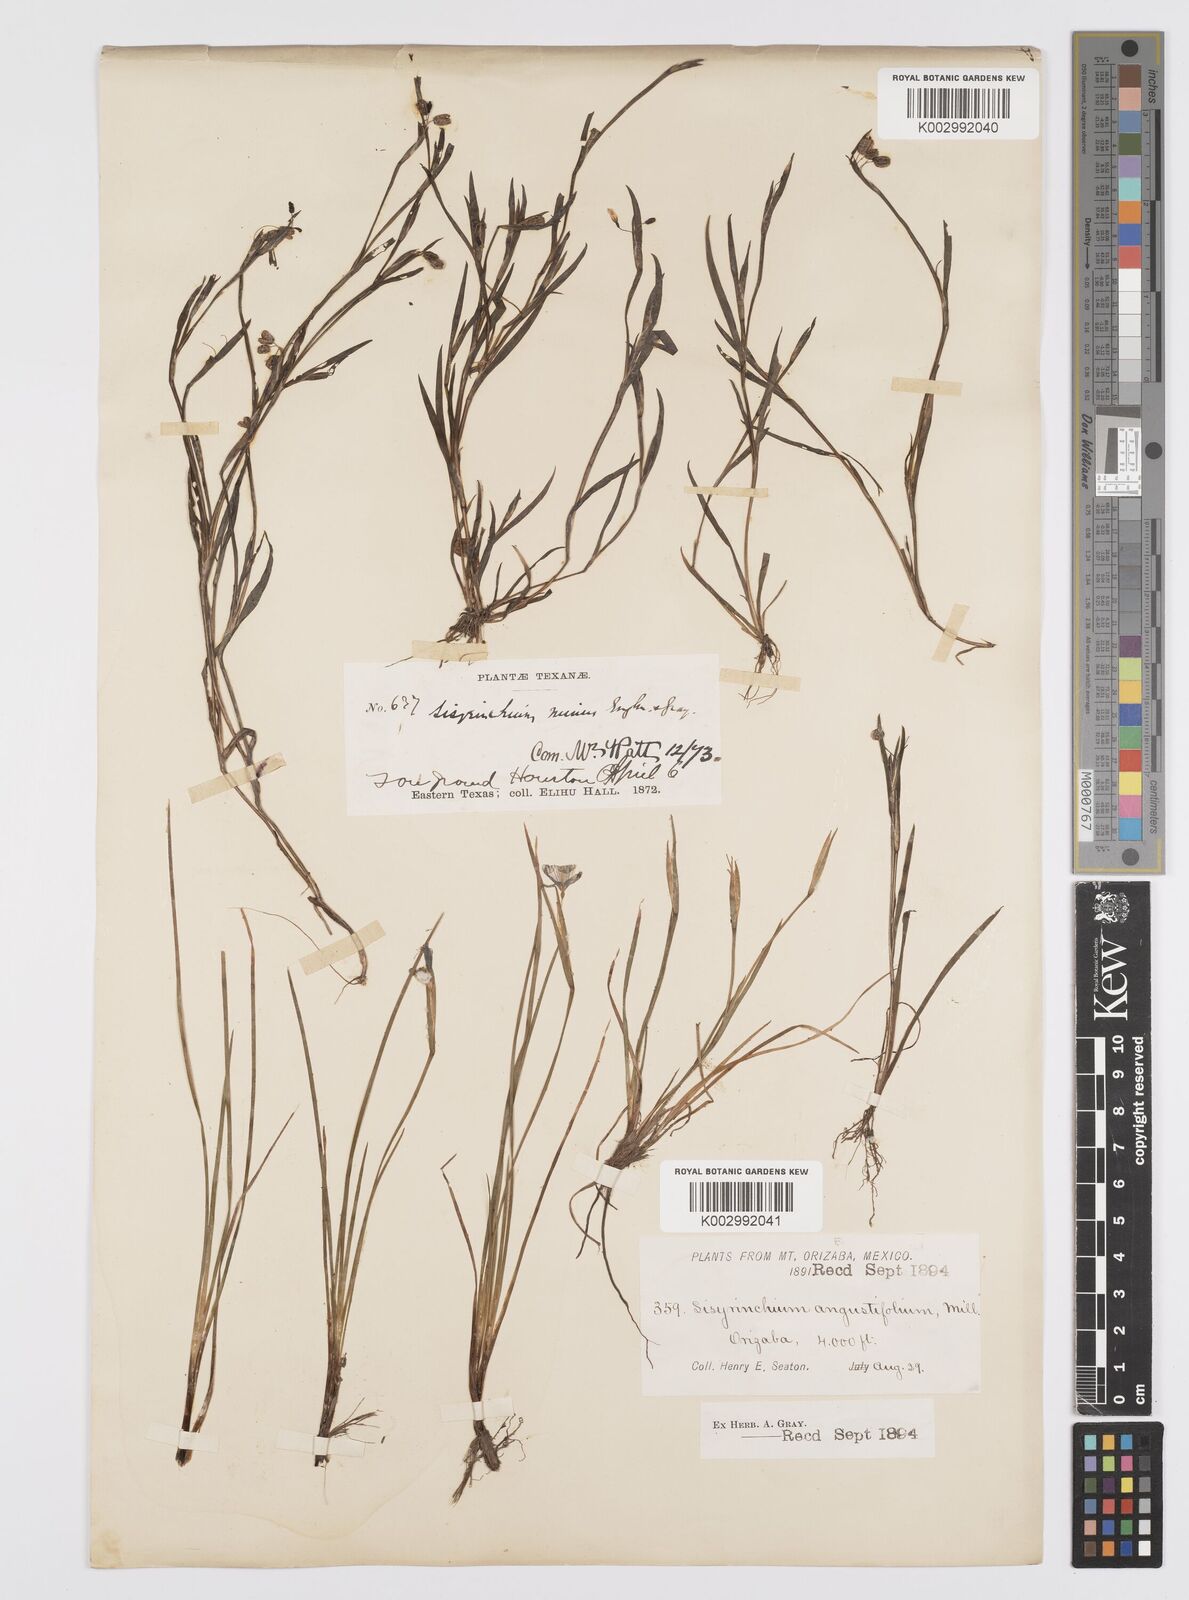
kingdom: Plantae
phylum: Tracheophyta
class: Liliopsida
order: Asparagales
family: Iridaceae
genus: Sisyrinchium
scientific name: Sisyrinchium angustifolium
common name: Narrow-leaf blue-eyed-grass
